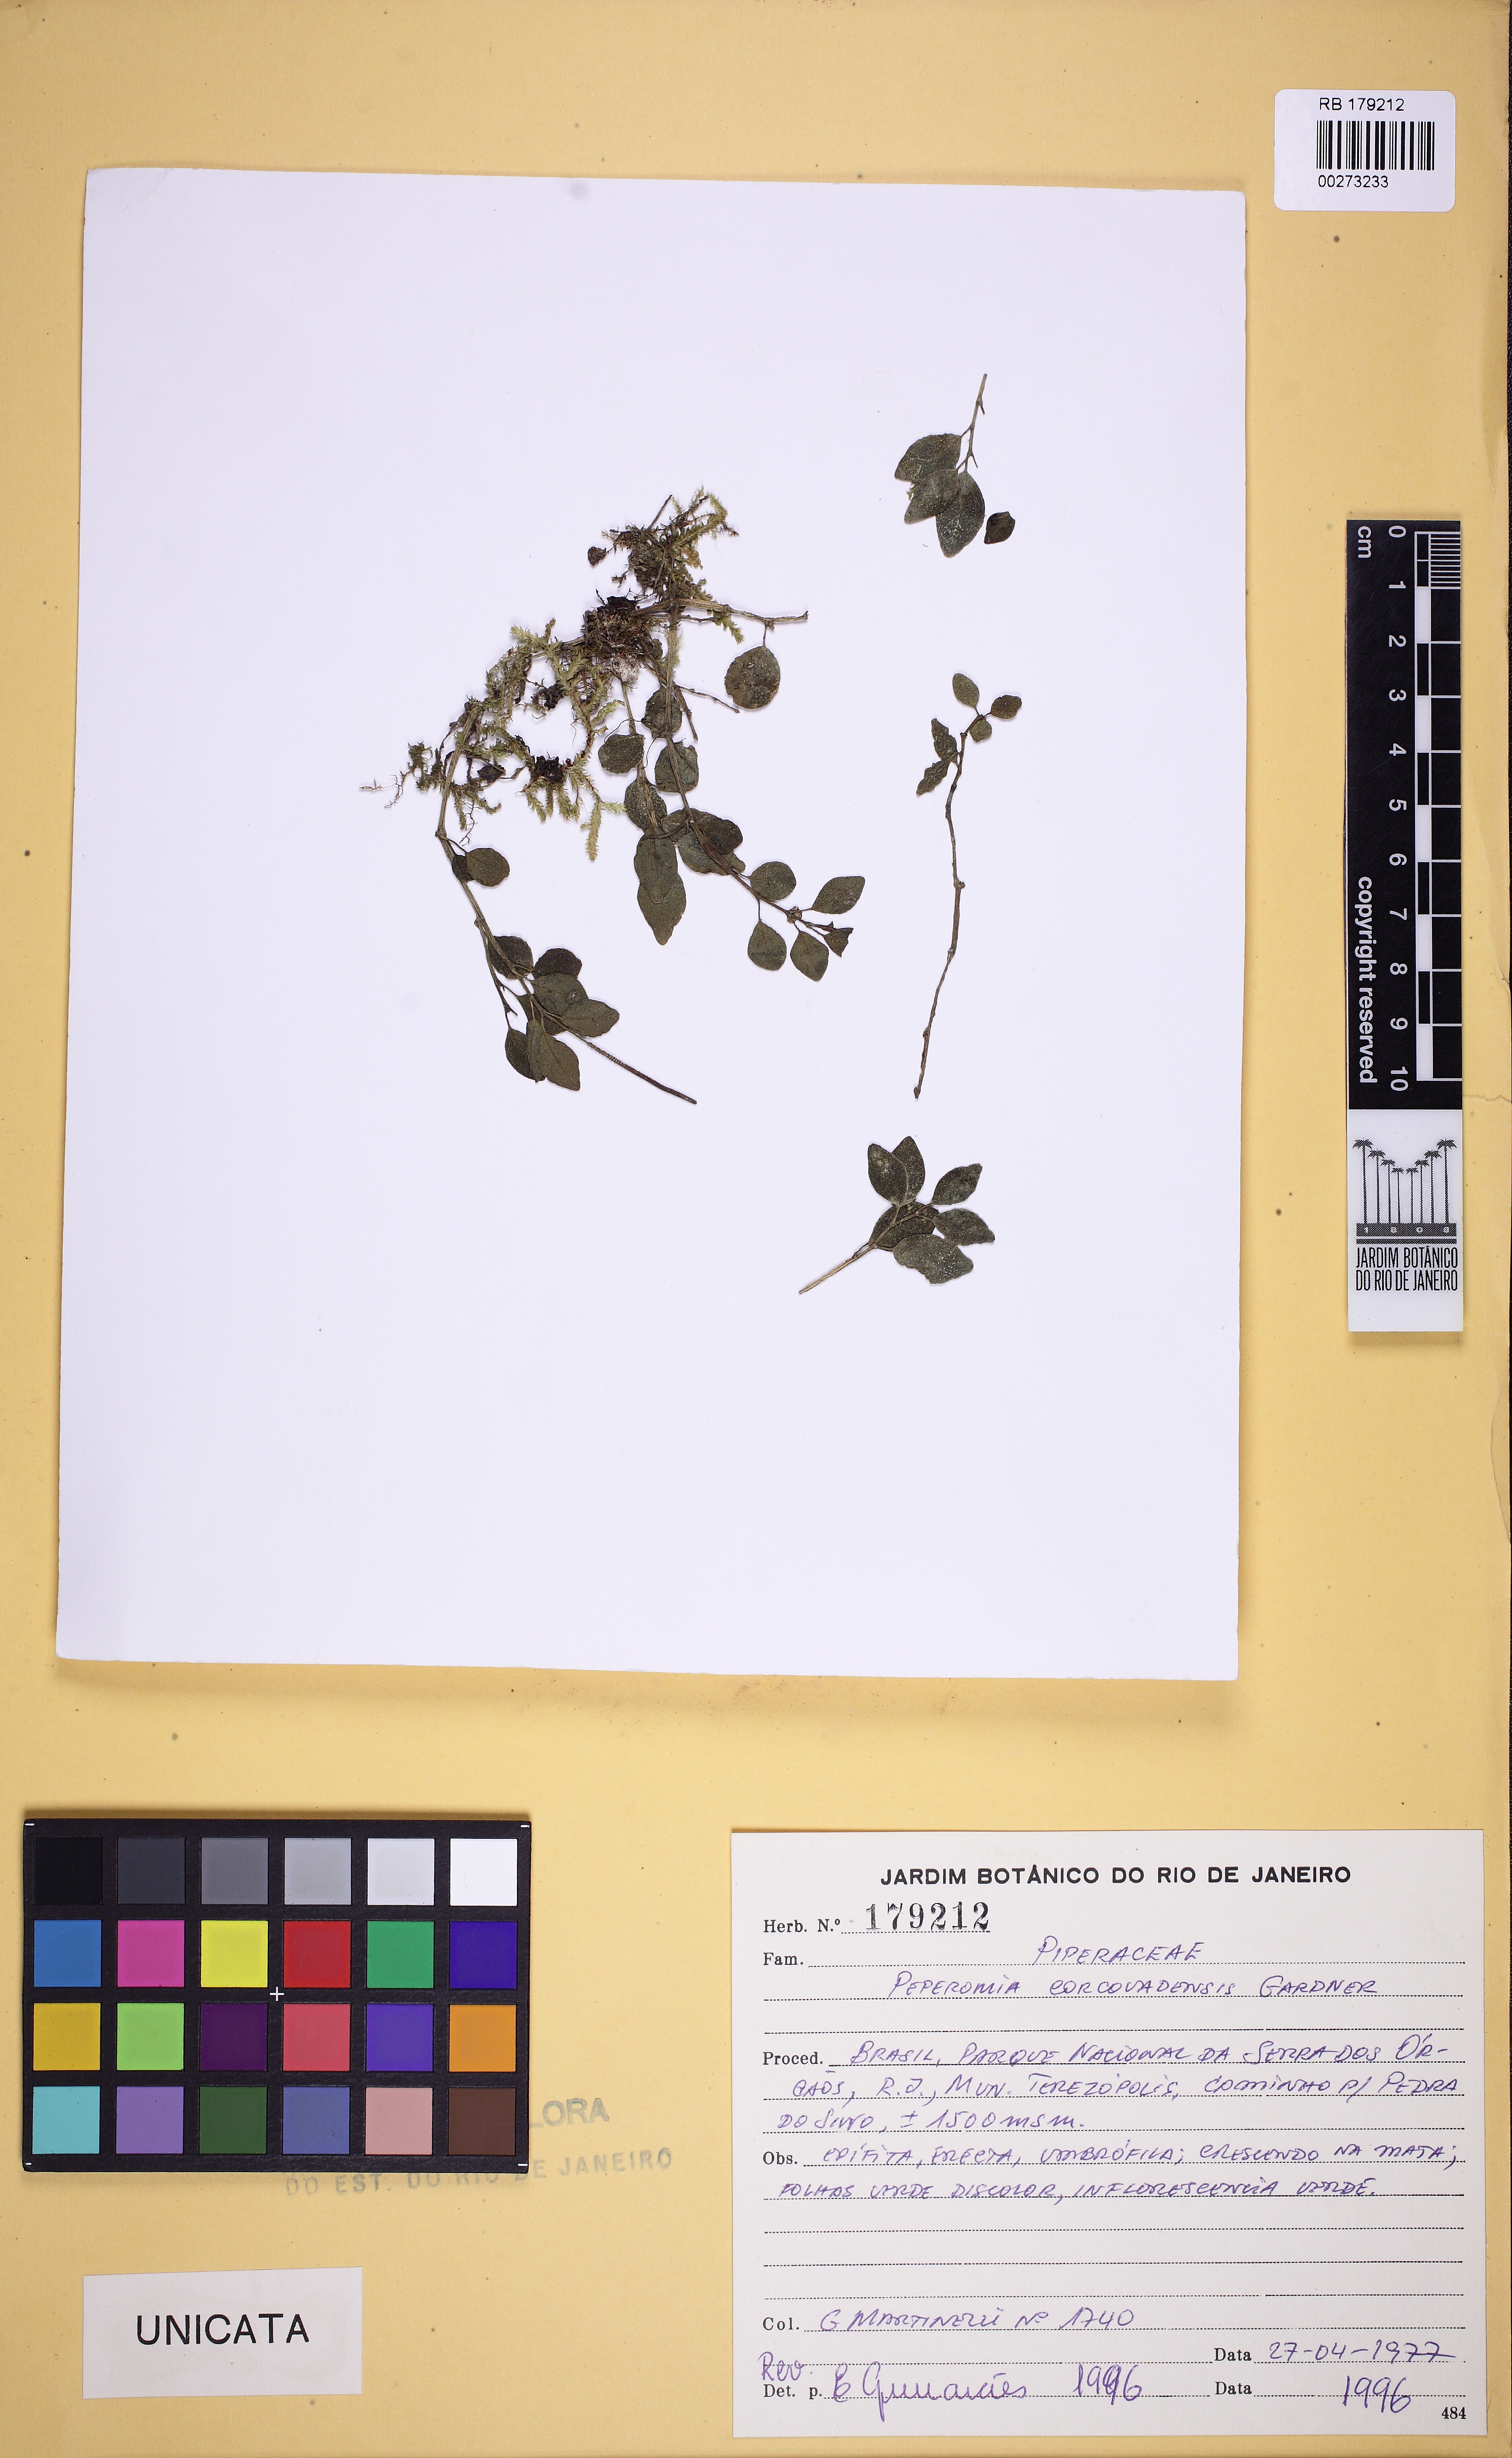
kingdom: Plantae
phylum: Tracheophyta
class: Magnoliopsida
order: Piperales
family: Piperaceae
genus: Peperomia
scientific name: Peperomia corcovadensis
